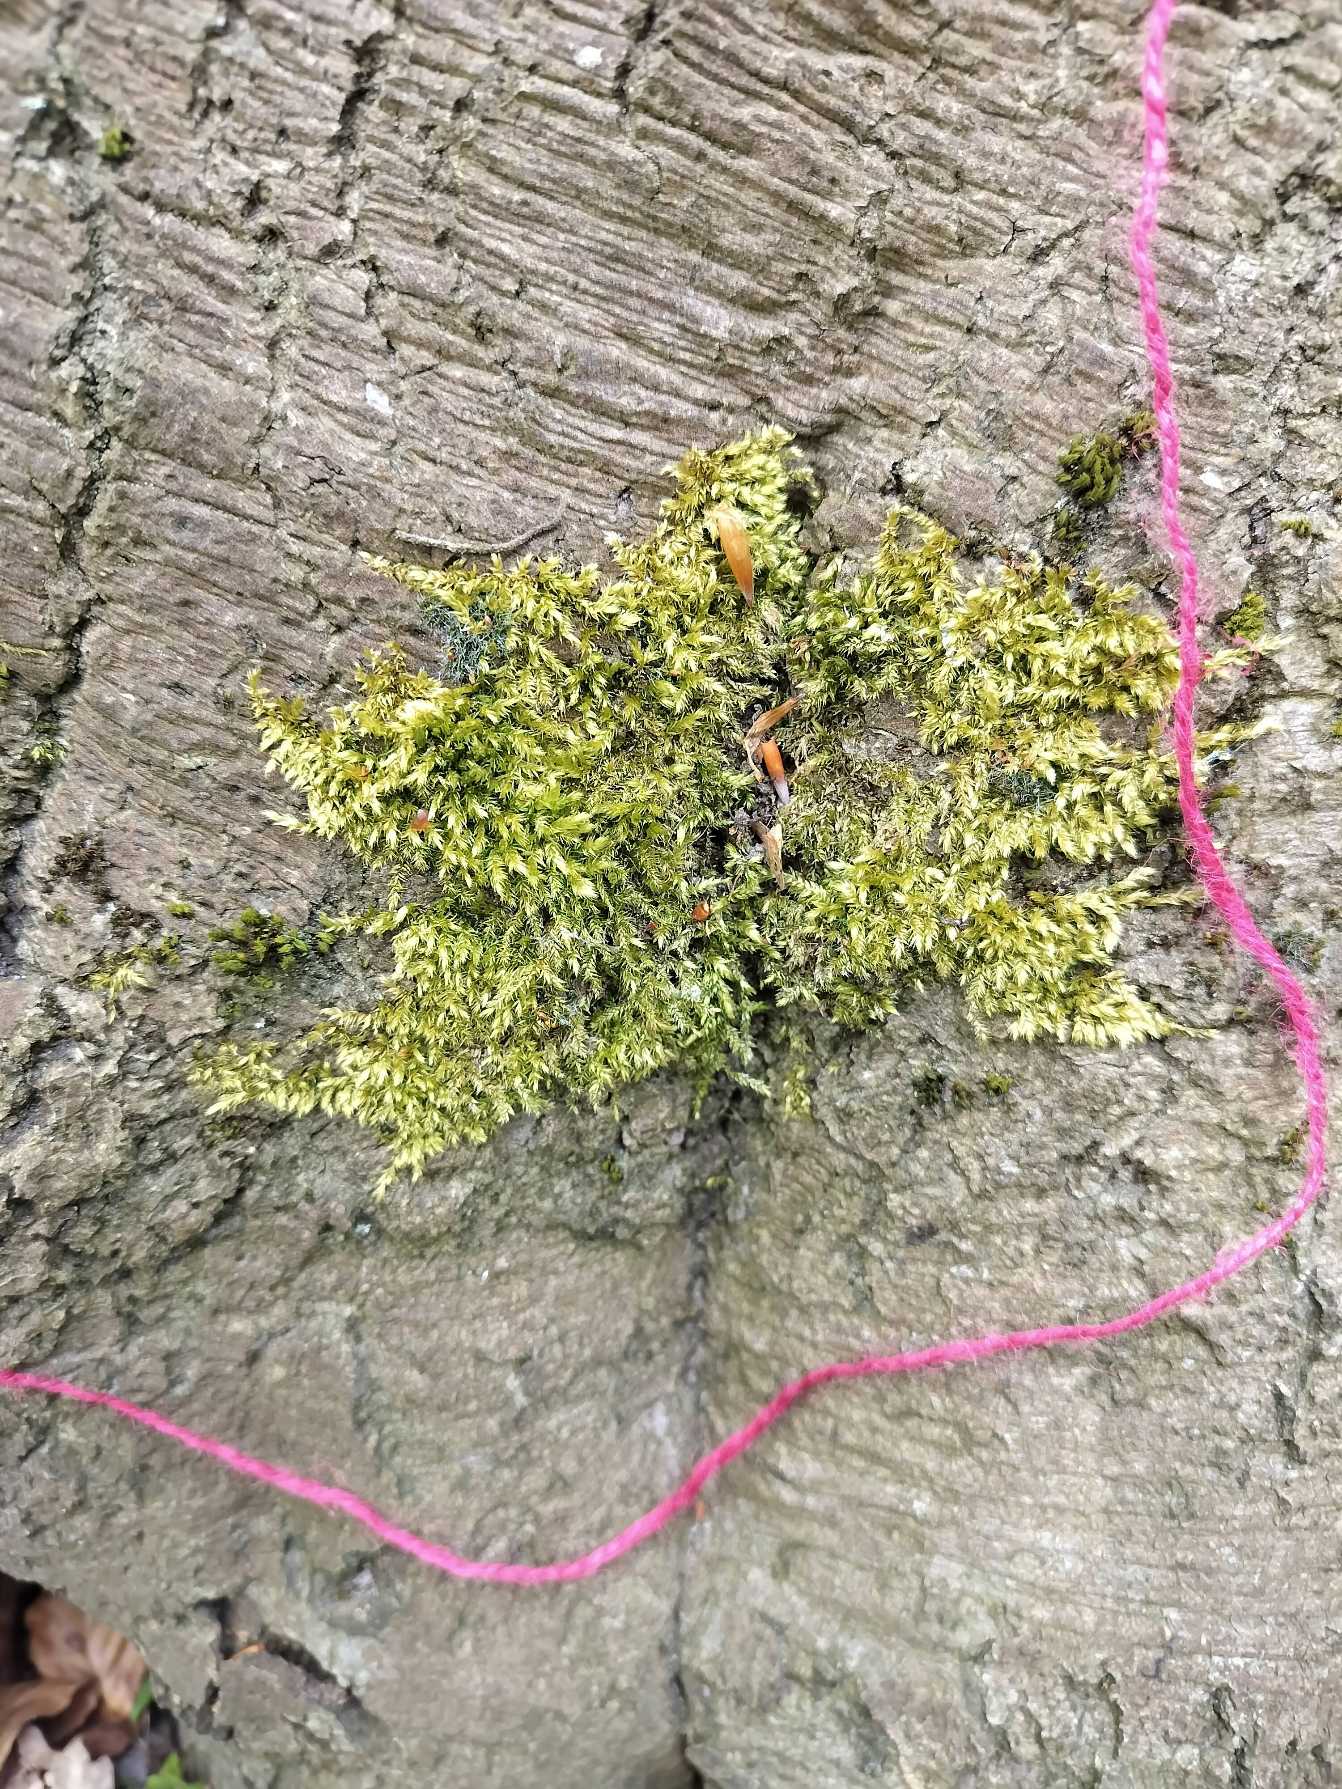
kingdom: Plantae
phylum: Bryophyta
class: Bryopsida
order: Hypnales
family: Brachytheciaceae
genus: Brachythecium
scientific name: Brachythecium rutabulum
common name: Almindelig kortkapsel
